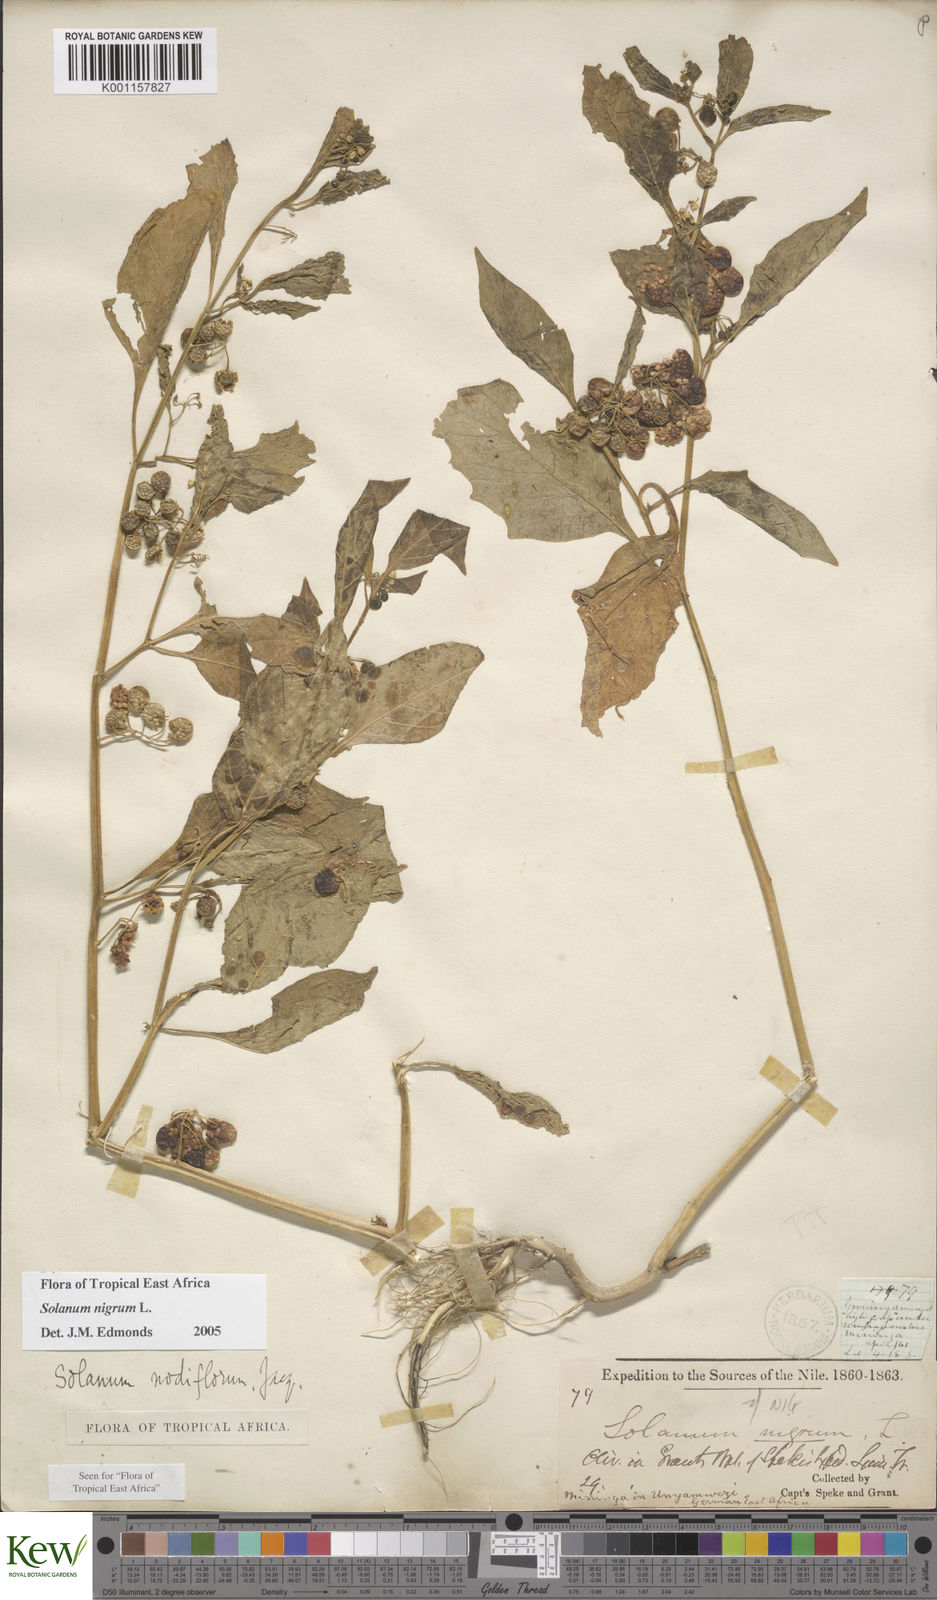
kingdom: Plantae
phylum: Tracheophyta
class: Magnoliopsida
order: Solanales
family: Solanaceae
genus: Solanum
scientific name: Solanum nigrum
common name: Black nightshade
